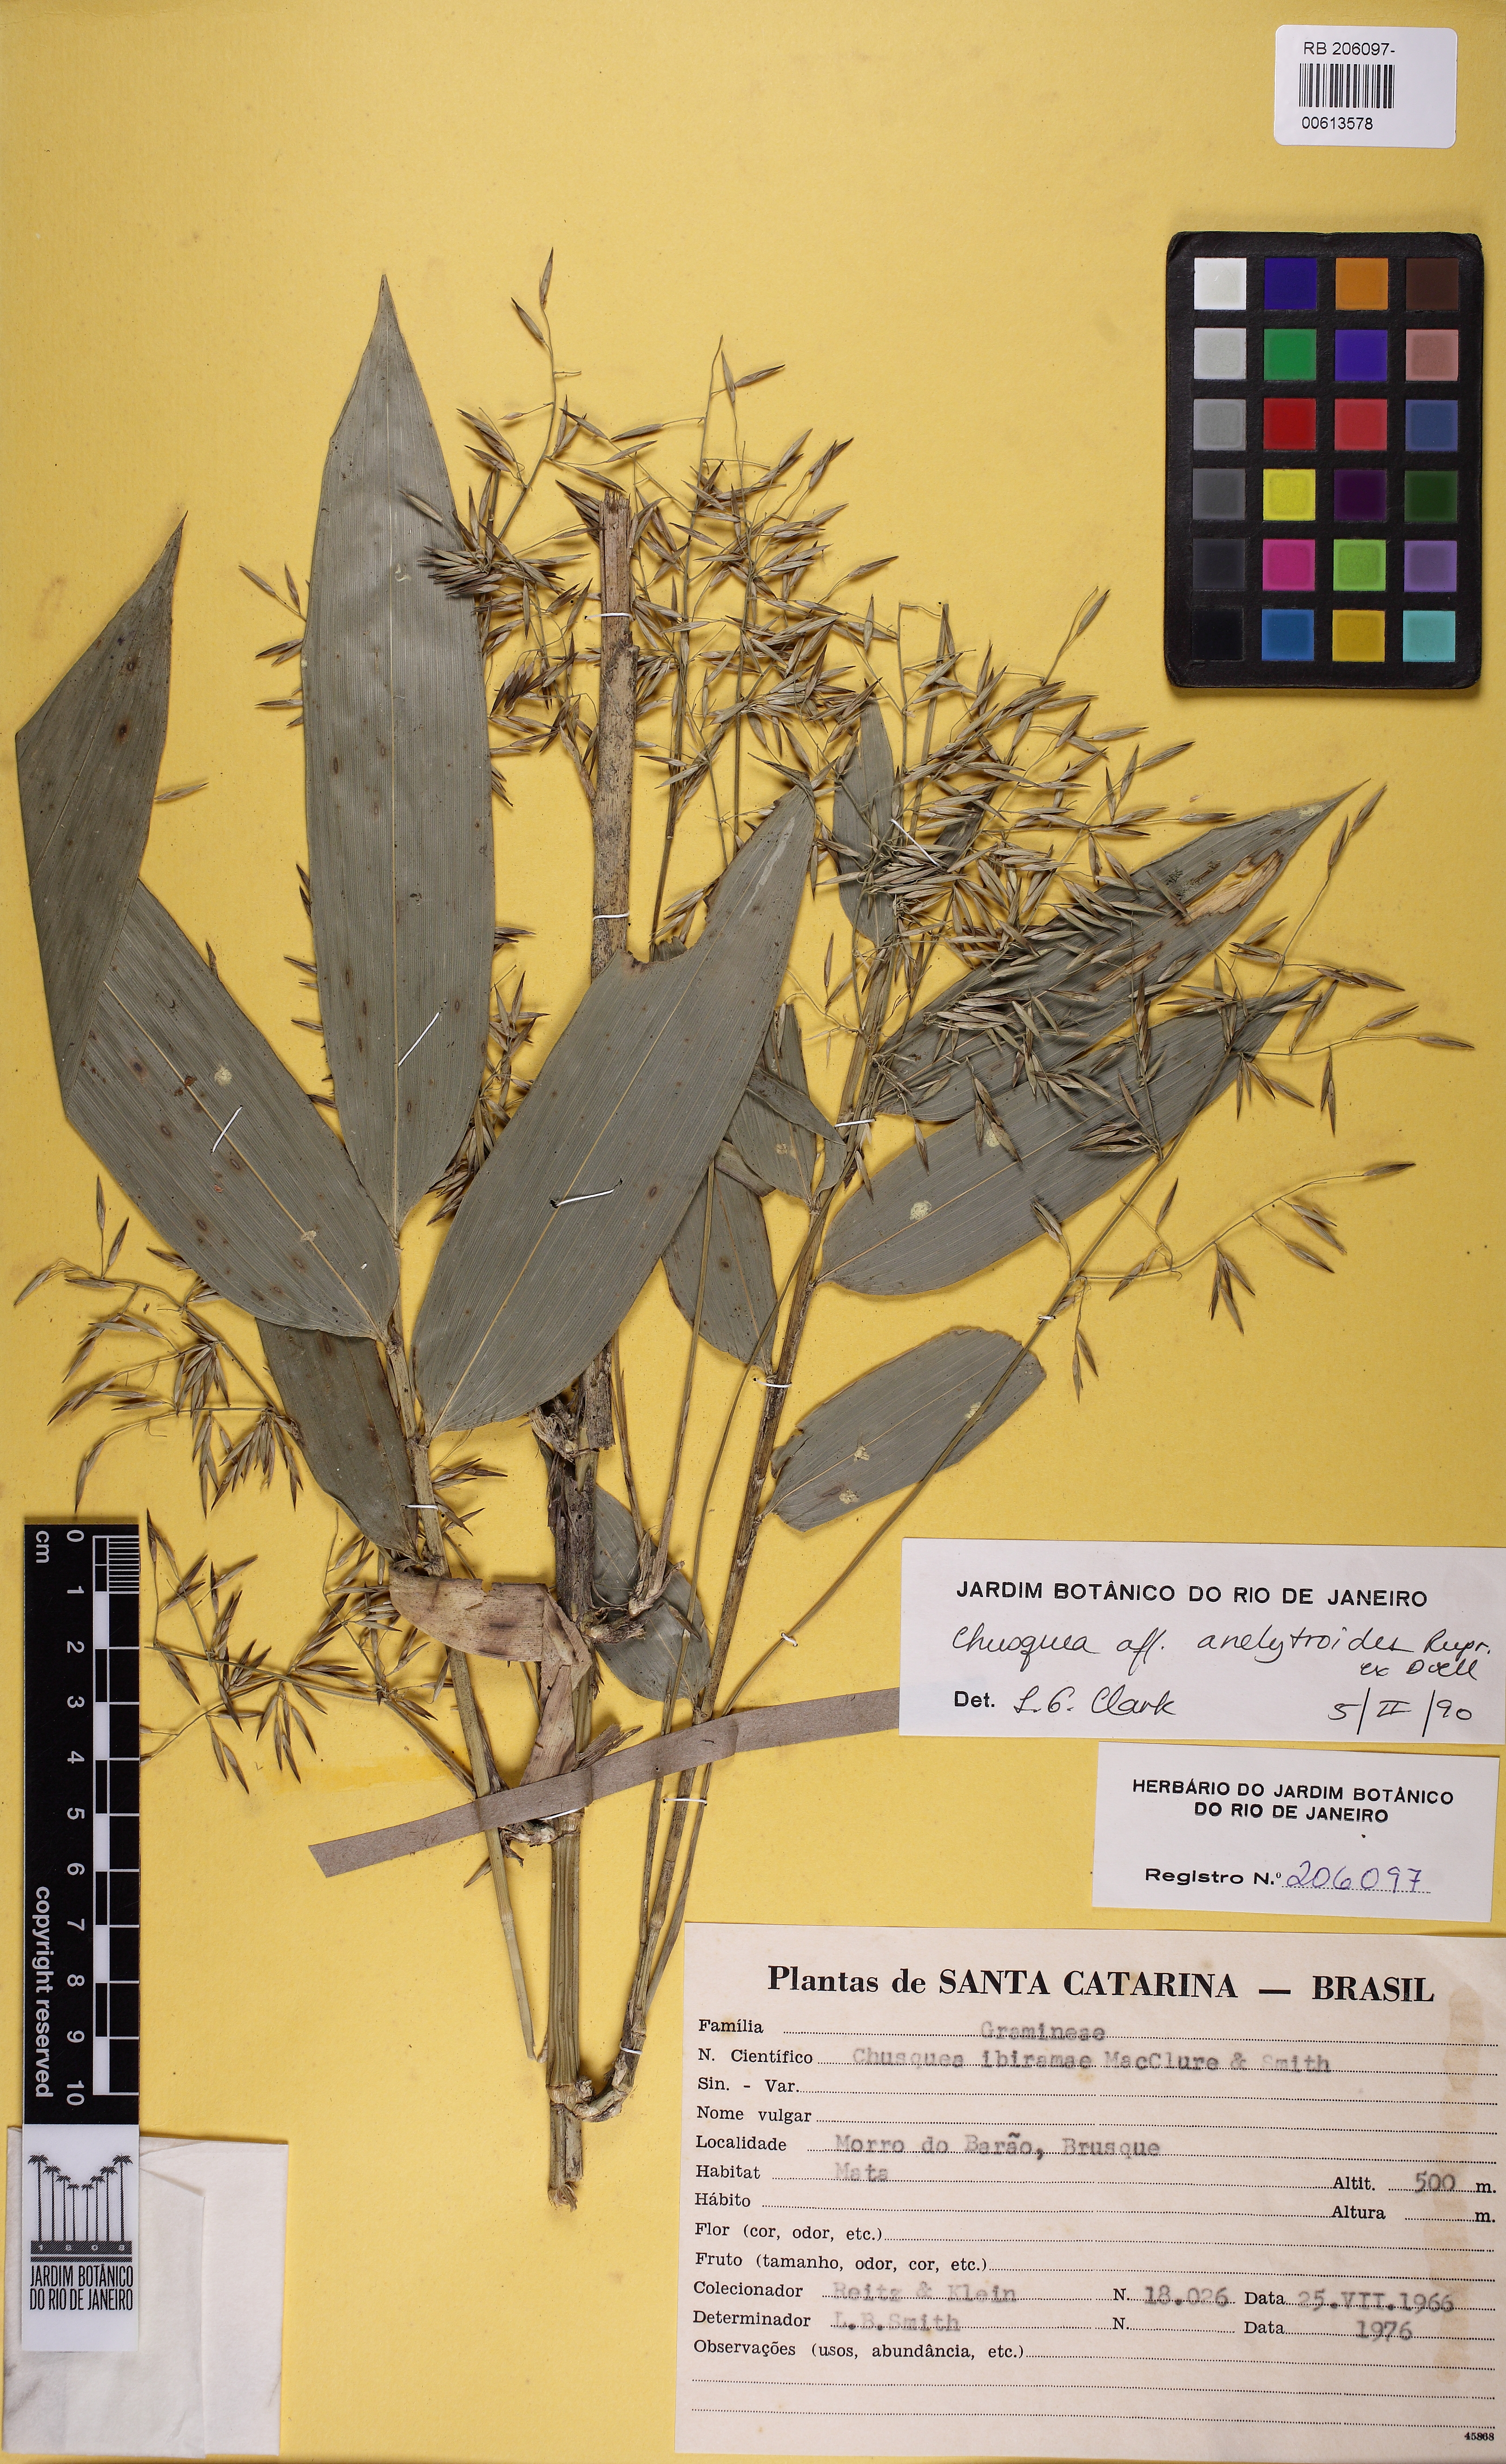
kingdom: Plantae
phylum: Tracheophyta
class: Liliopsida
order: Poales
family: Poaceae
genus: Chusquea
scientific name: Chusquea ibiramae
